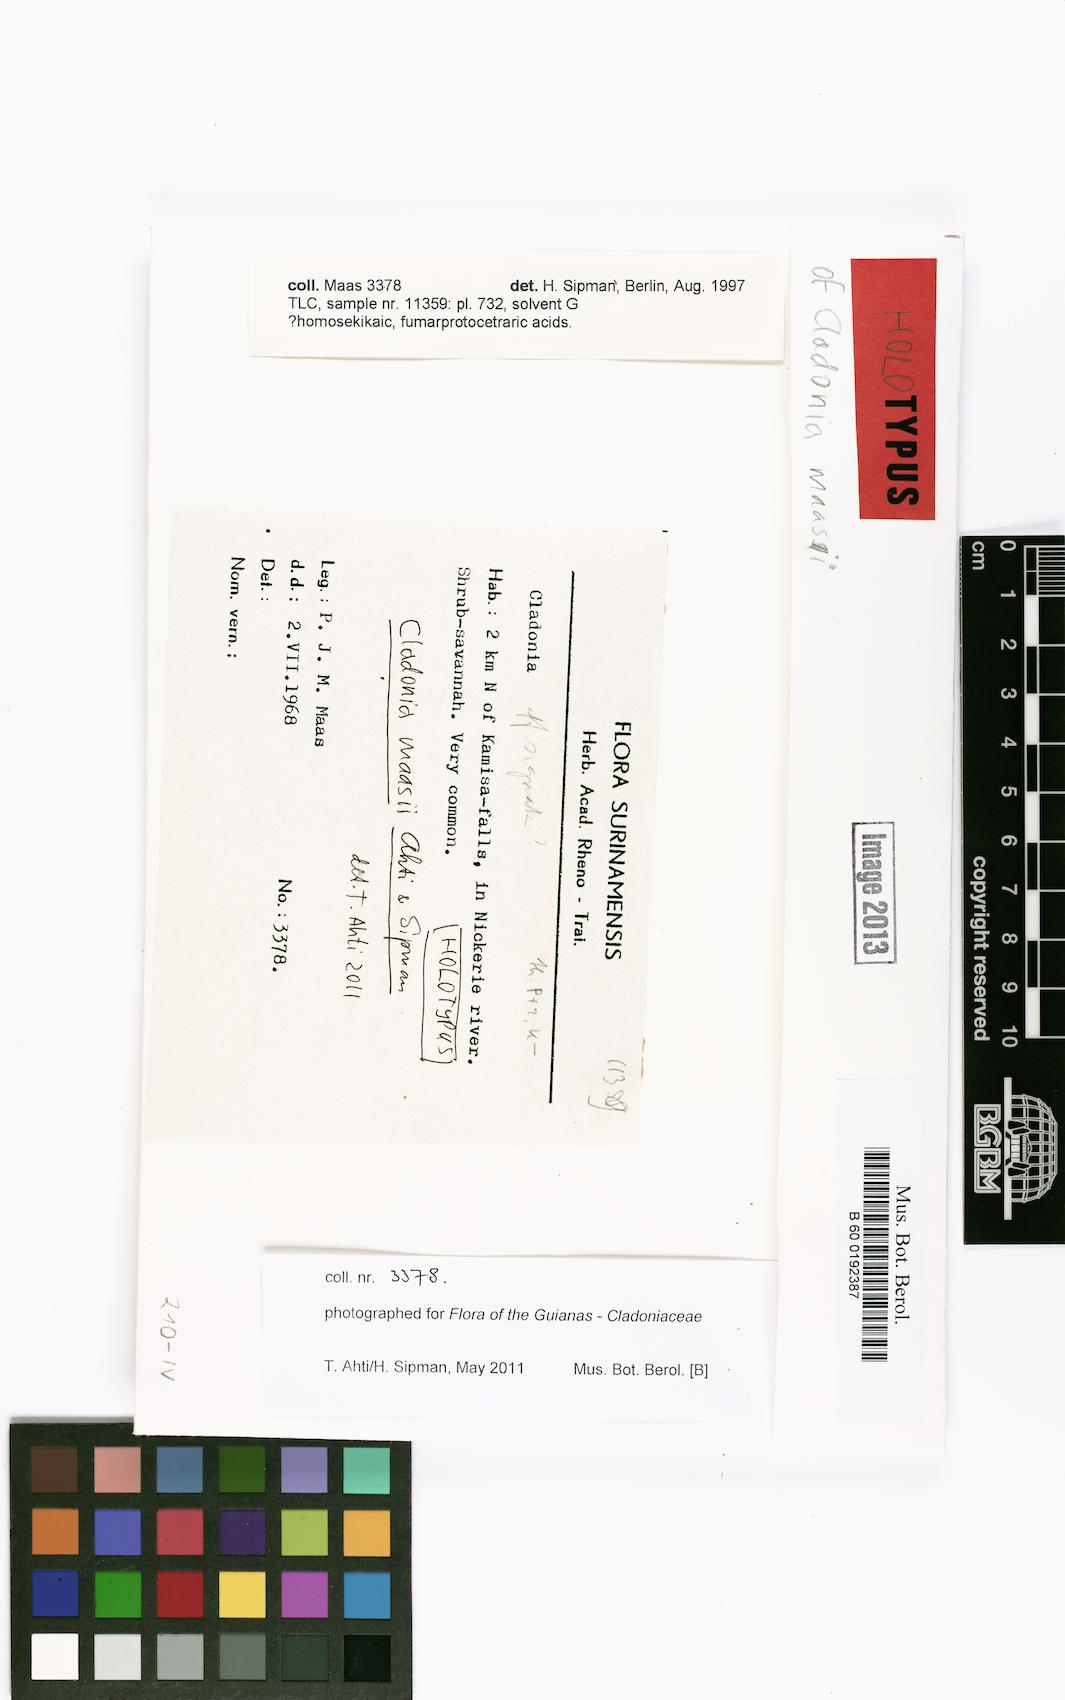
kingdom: Fungi
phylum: Ascomycota
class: Lecanoromycetes
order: Lecanorales
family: Cladoniaceae
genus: Cladonia
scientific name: Cladonia pertricosa
